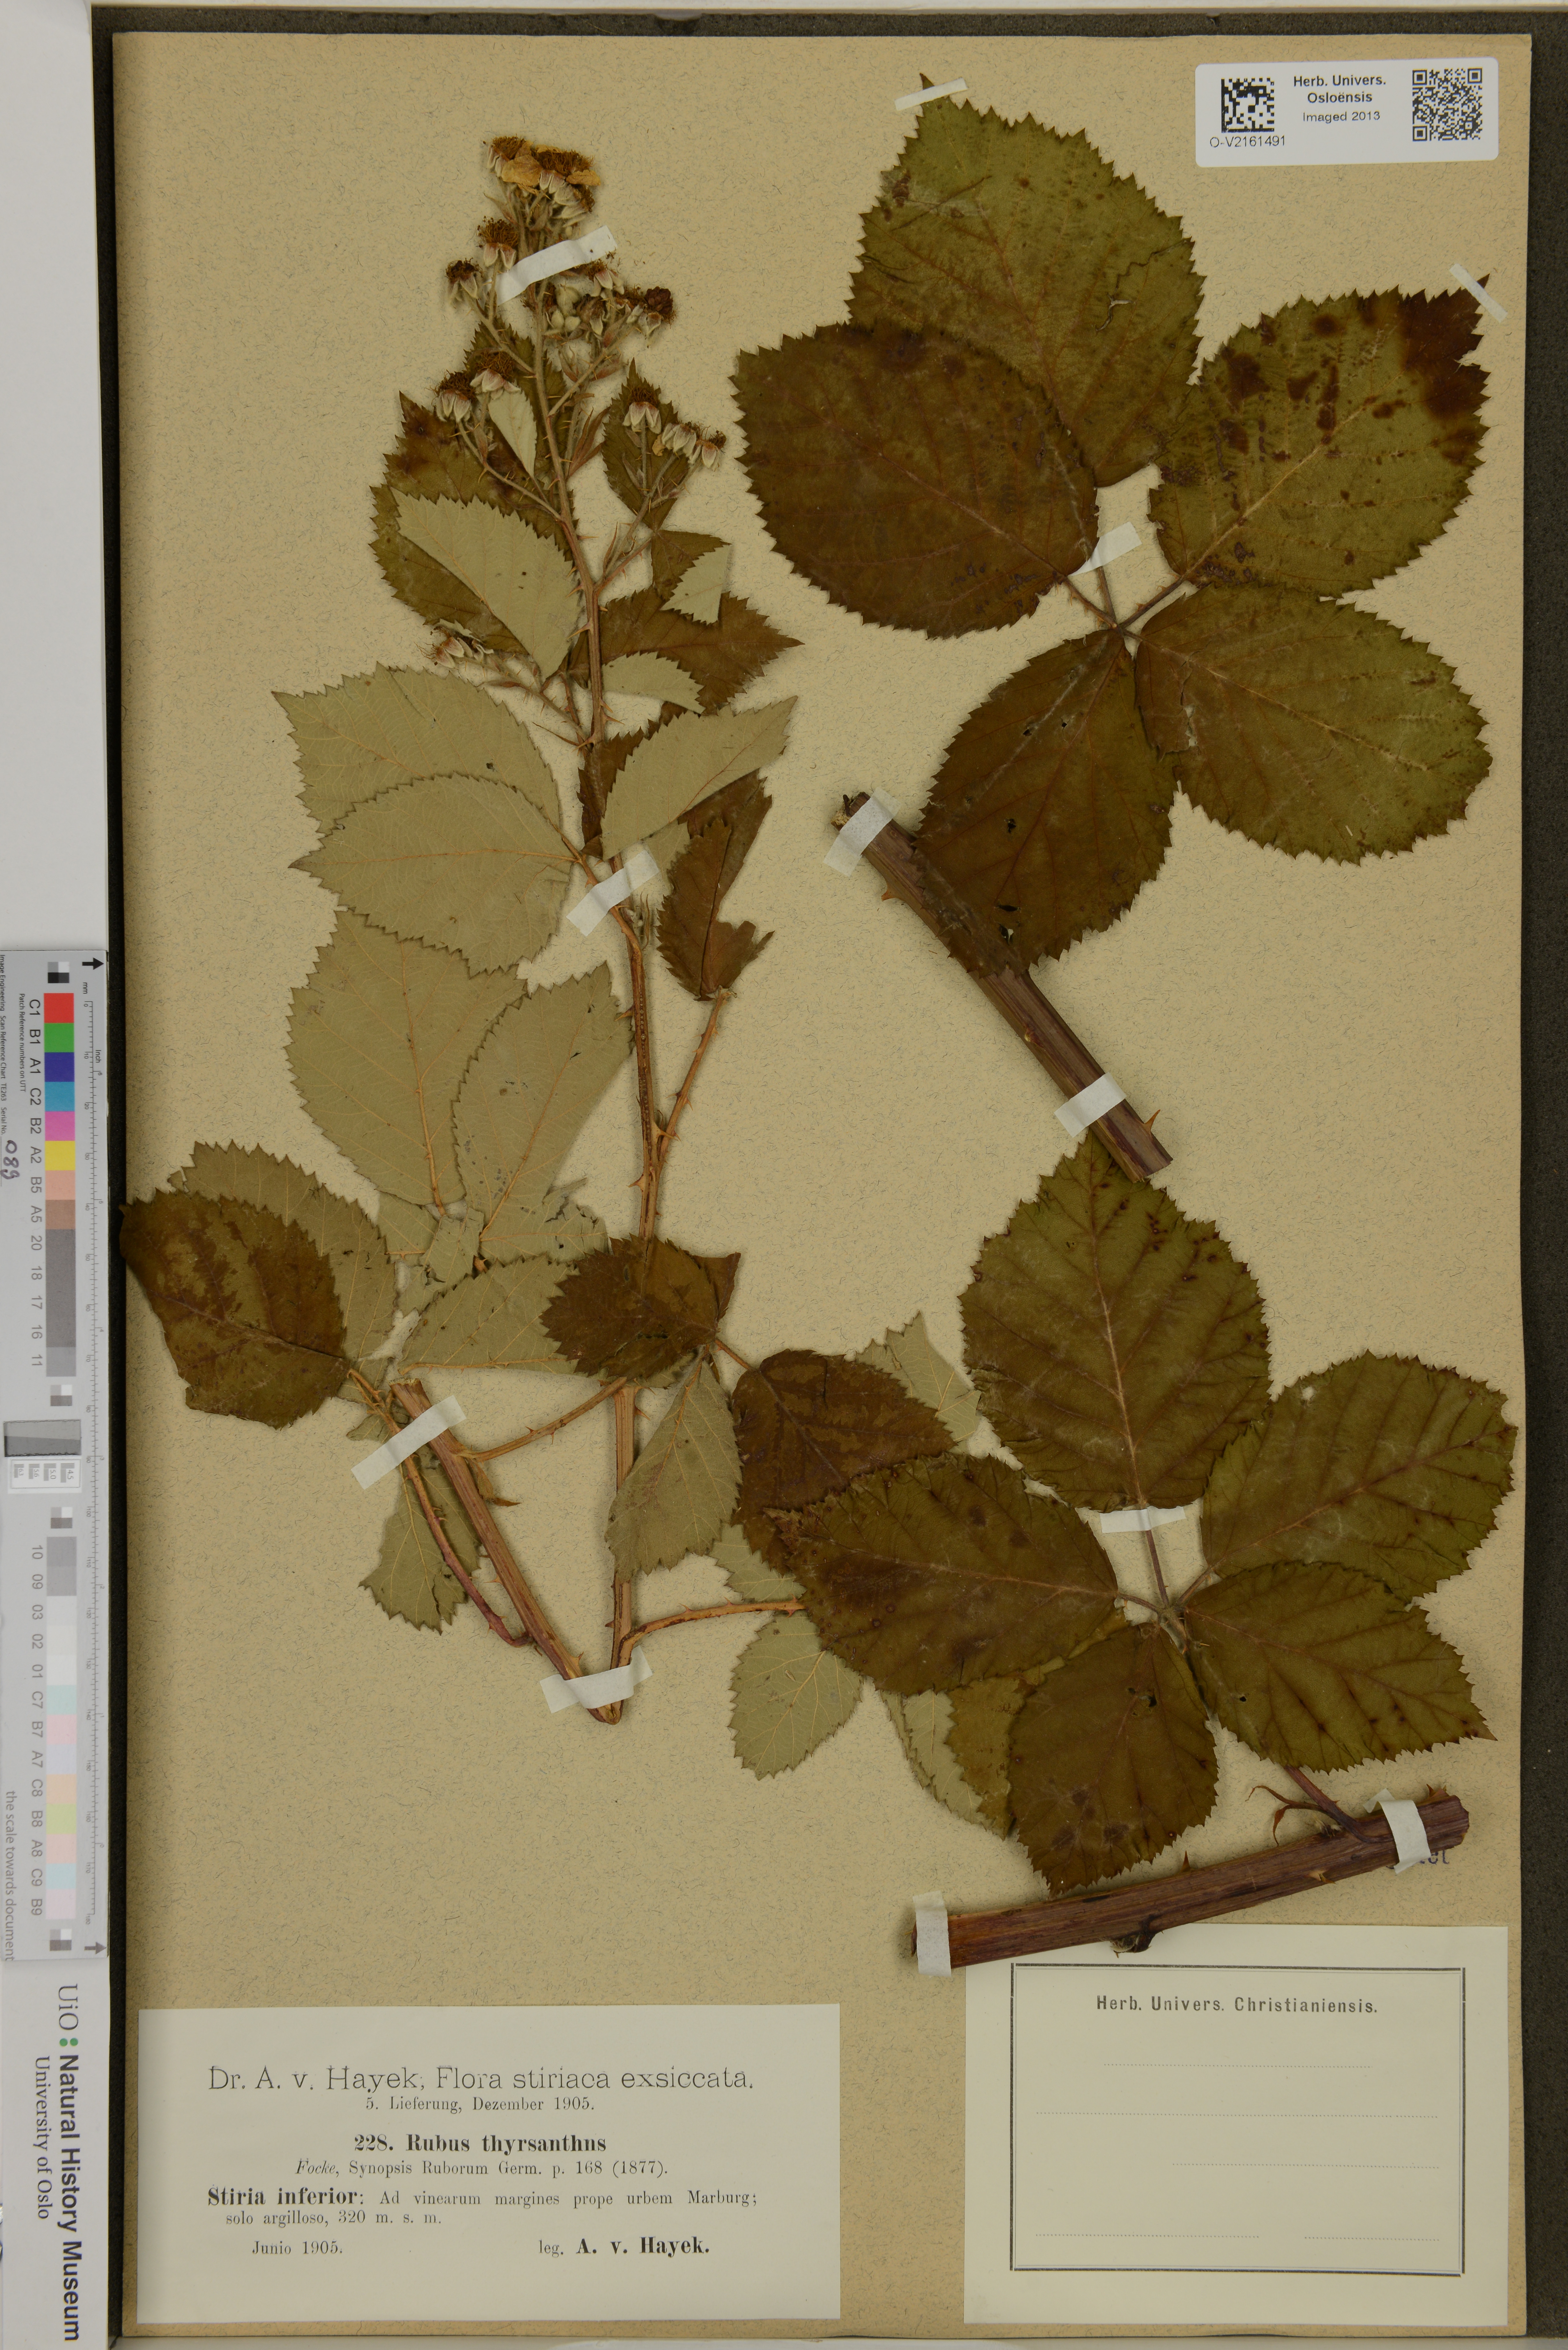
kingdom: Plantae
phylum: Tracheophyta
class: Magnoliopsida
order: Rosales
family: Rosaceae
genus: Rubus
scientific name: Rubus grabowskii
